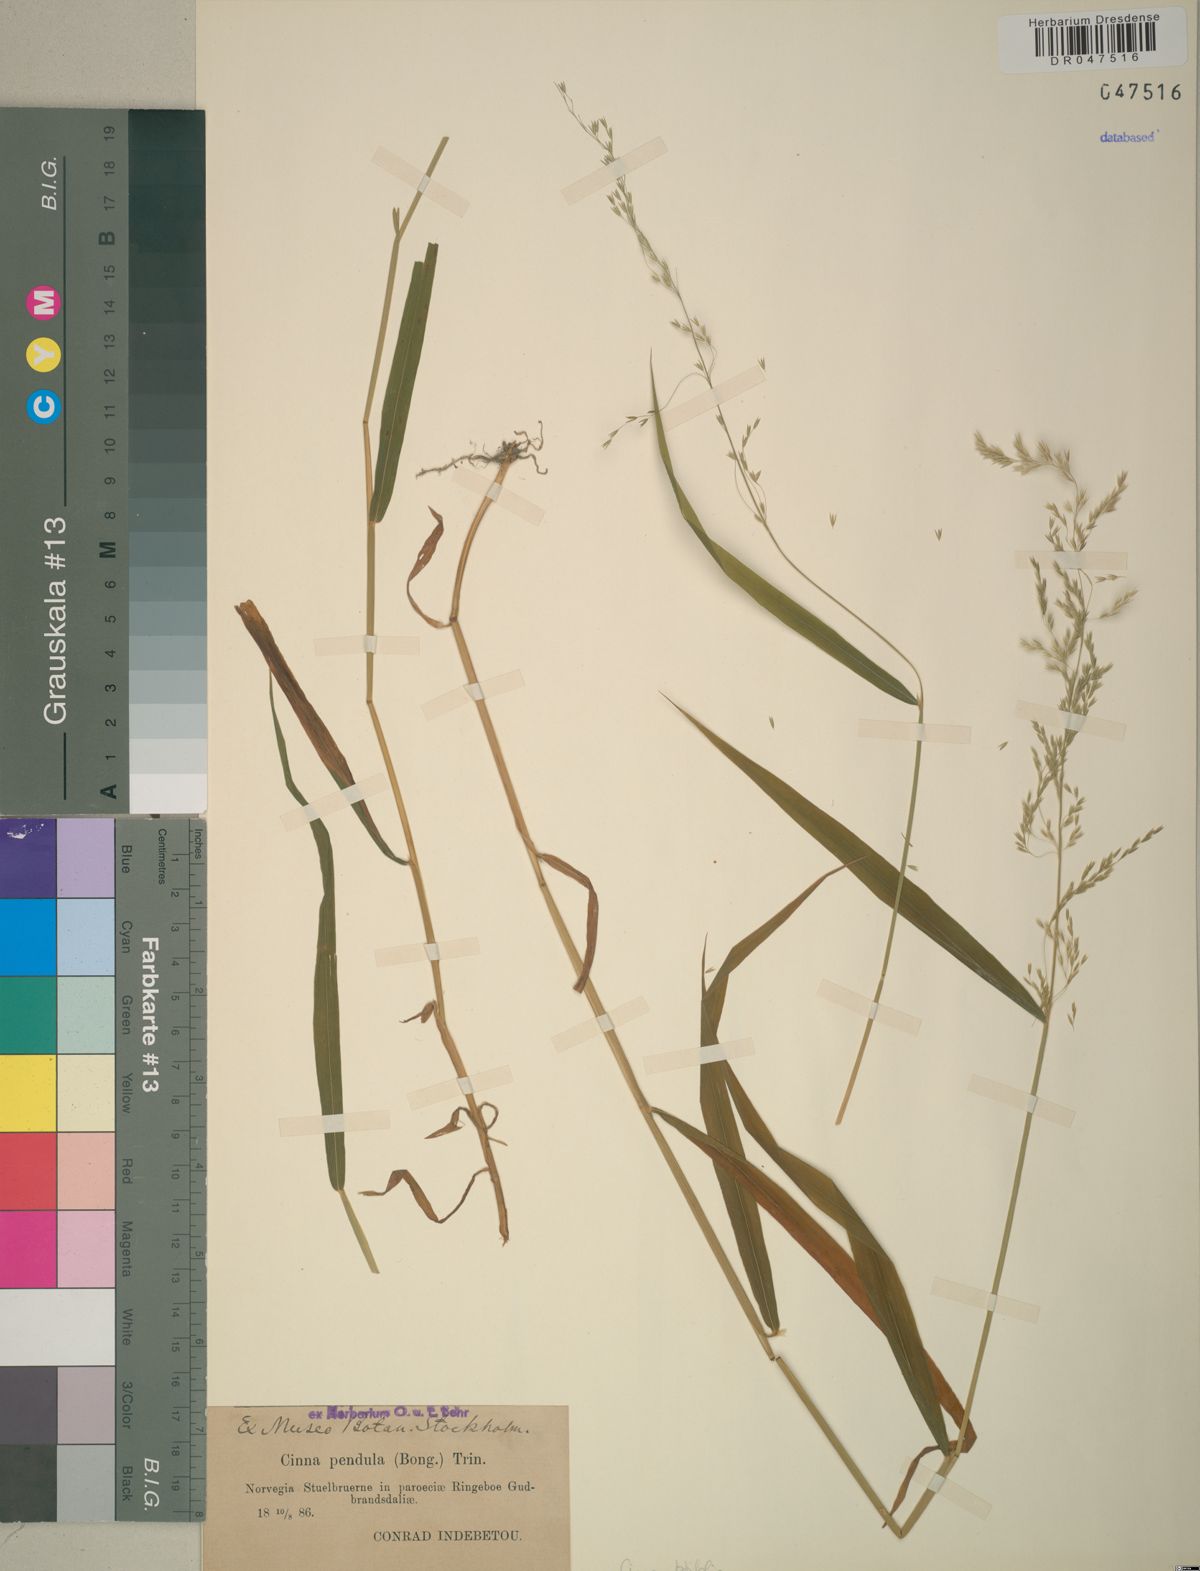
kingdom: Plantae
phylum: Tracheophyta
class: Liliopsida
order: Poales
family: Poaceae
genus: Cinna
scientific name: Cinna latifolia
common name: Drooping woodreed
